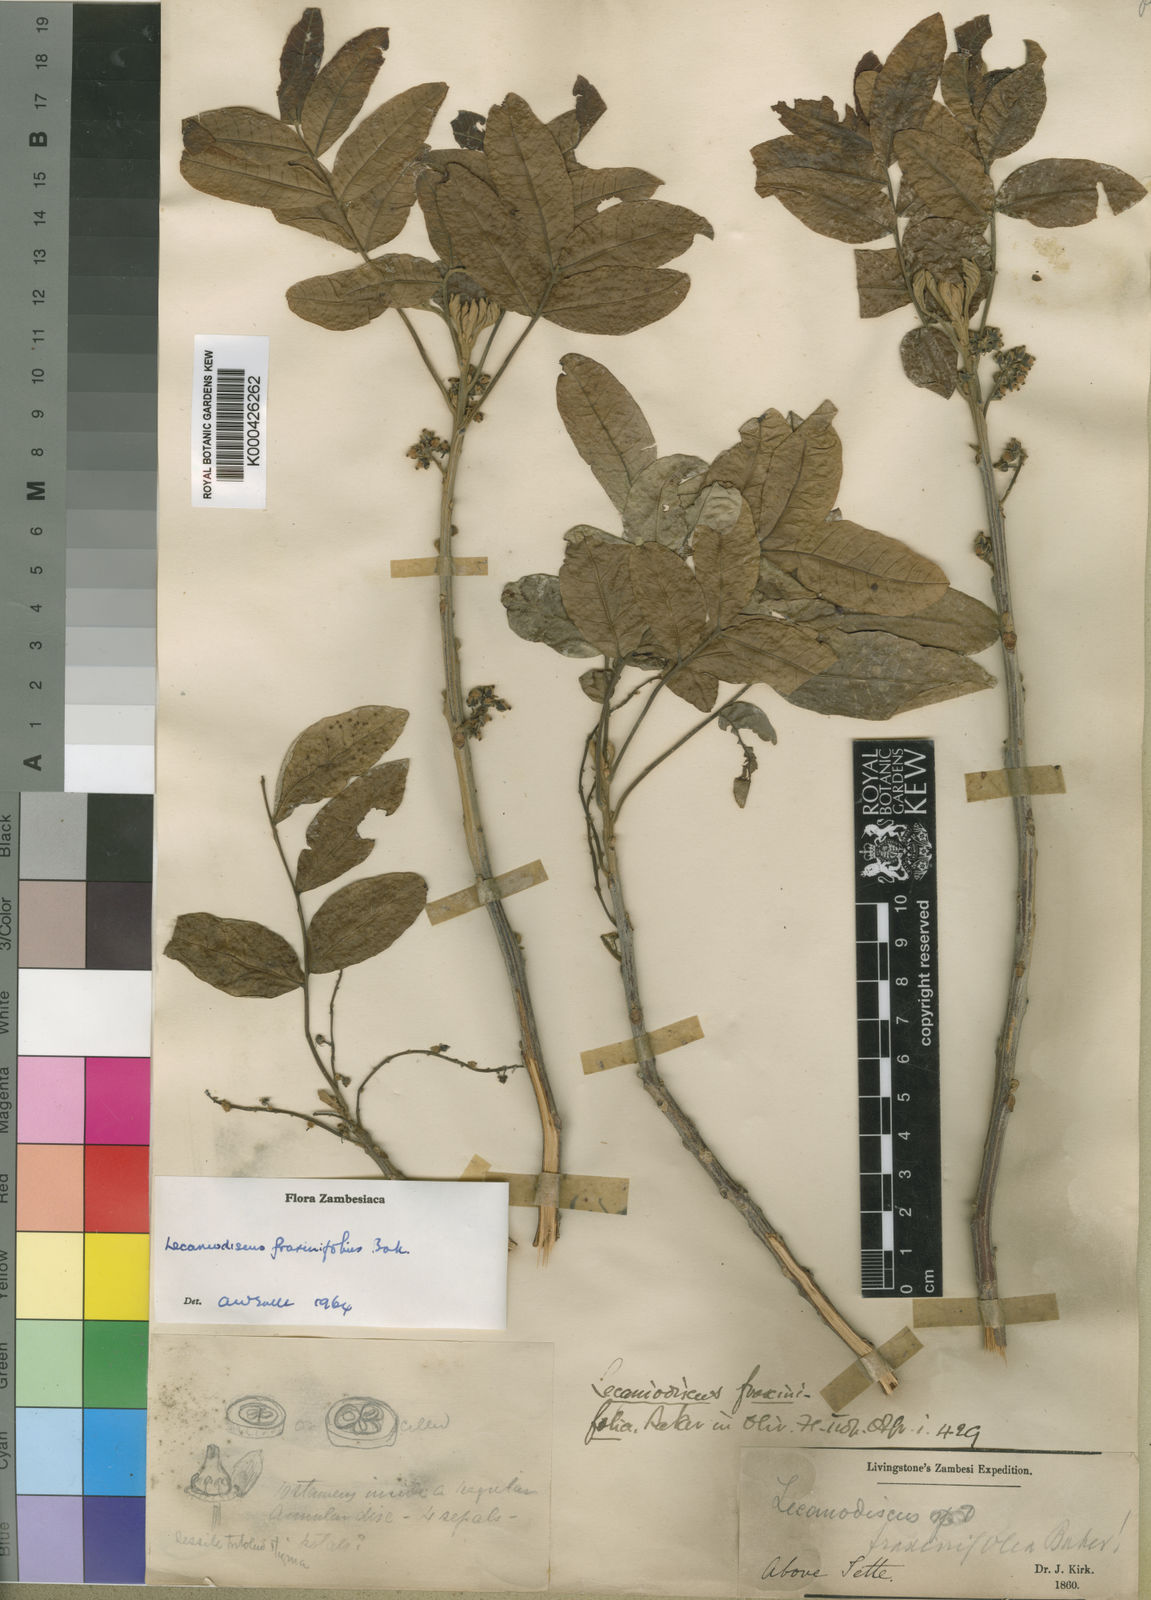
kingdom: Plantae
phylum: Tracheophyta
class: Magnoliopsida
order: Sapindales
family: Sapindaceae
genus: Lecaniodiscus
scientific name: Lecaniodiscus fraxinifolius
